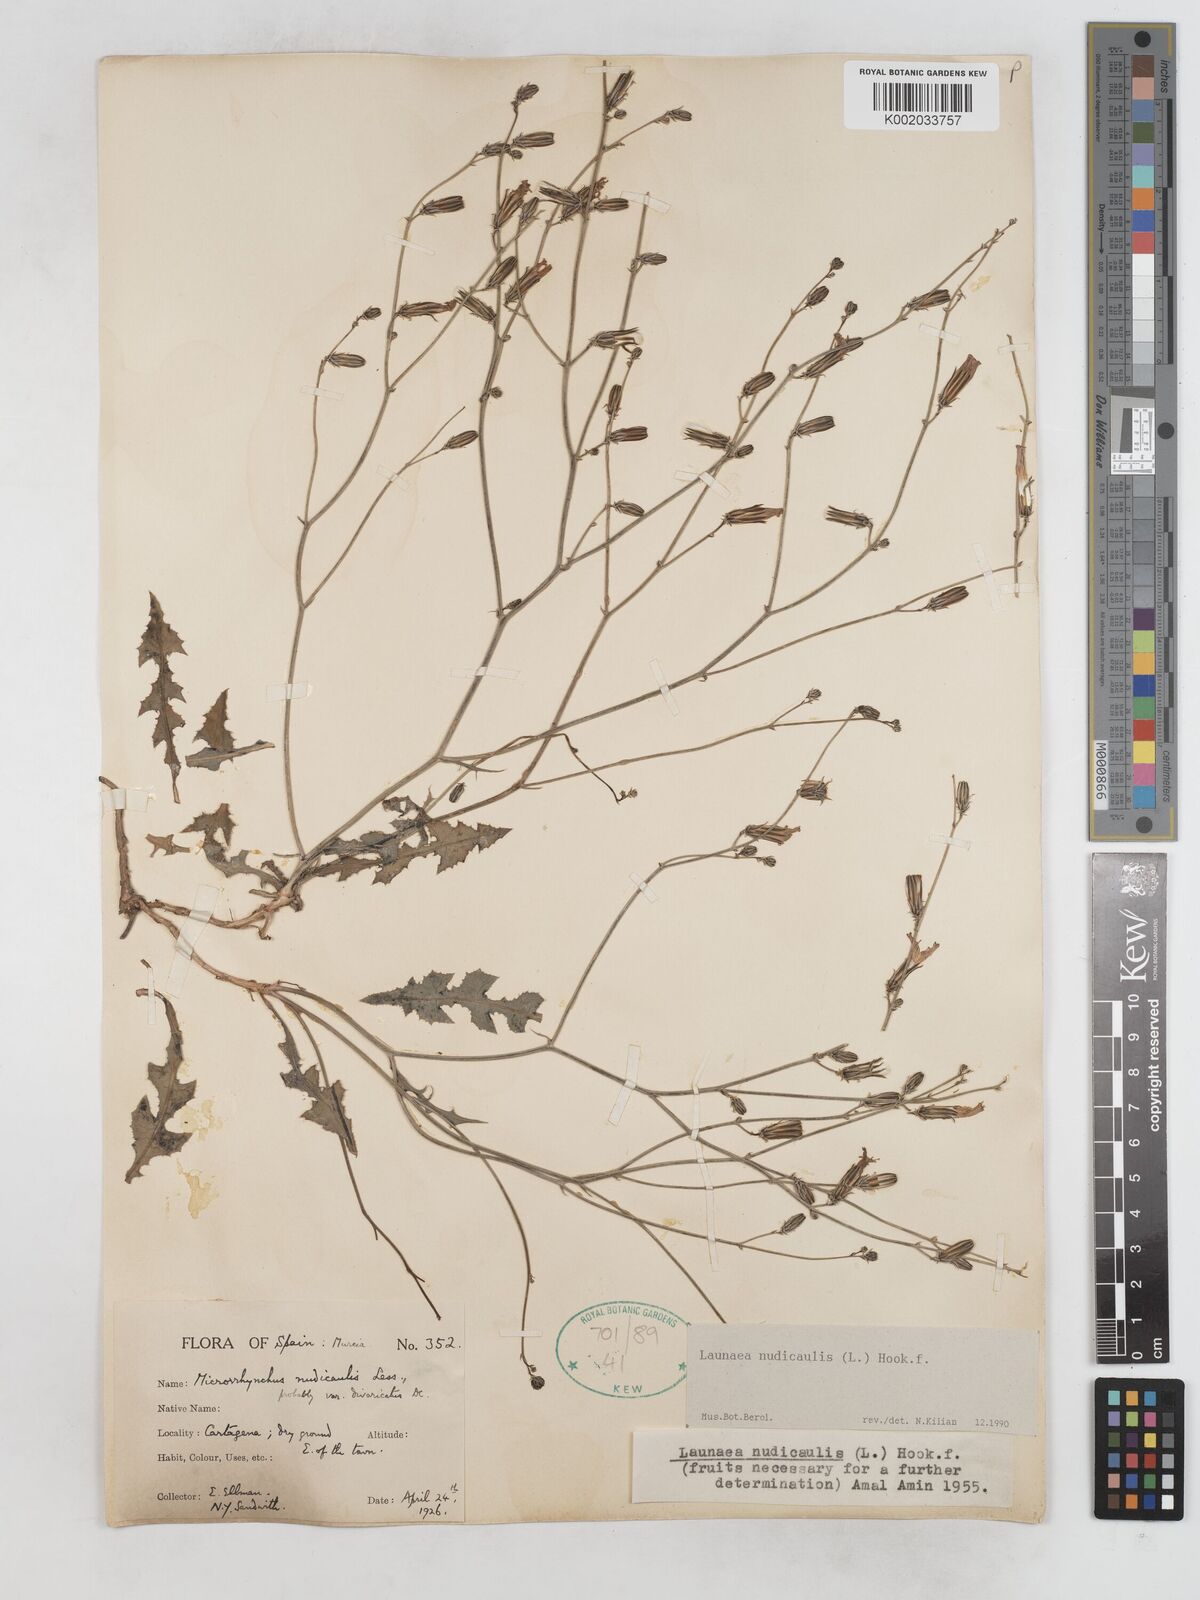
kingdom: Plantae
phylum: Tracheophyta
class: Magnoliopsida
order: Asterales
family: Asteraceae
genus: Launaea
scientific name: Launaea nudicaulis
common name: Naked launaea
